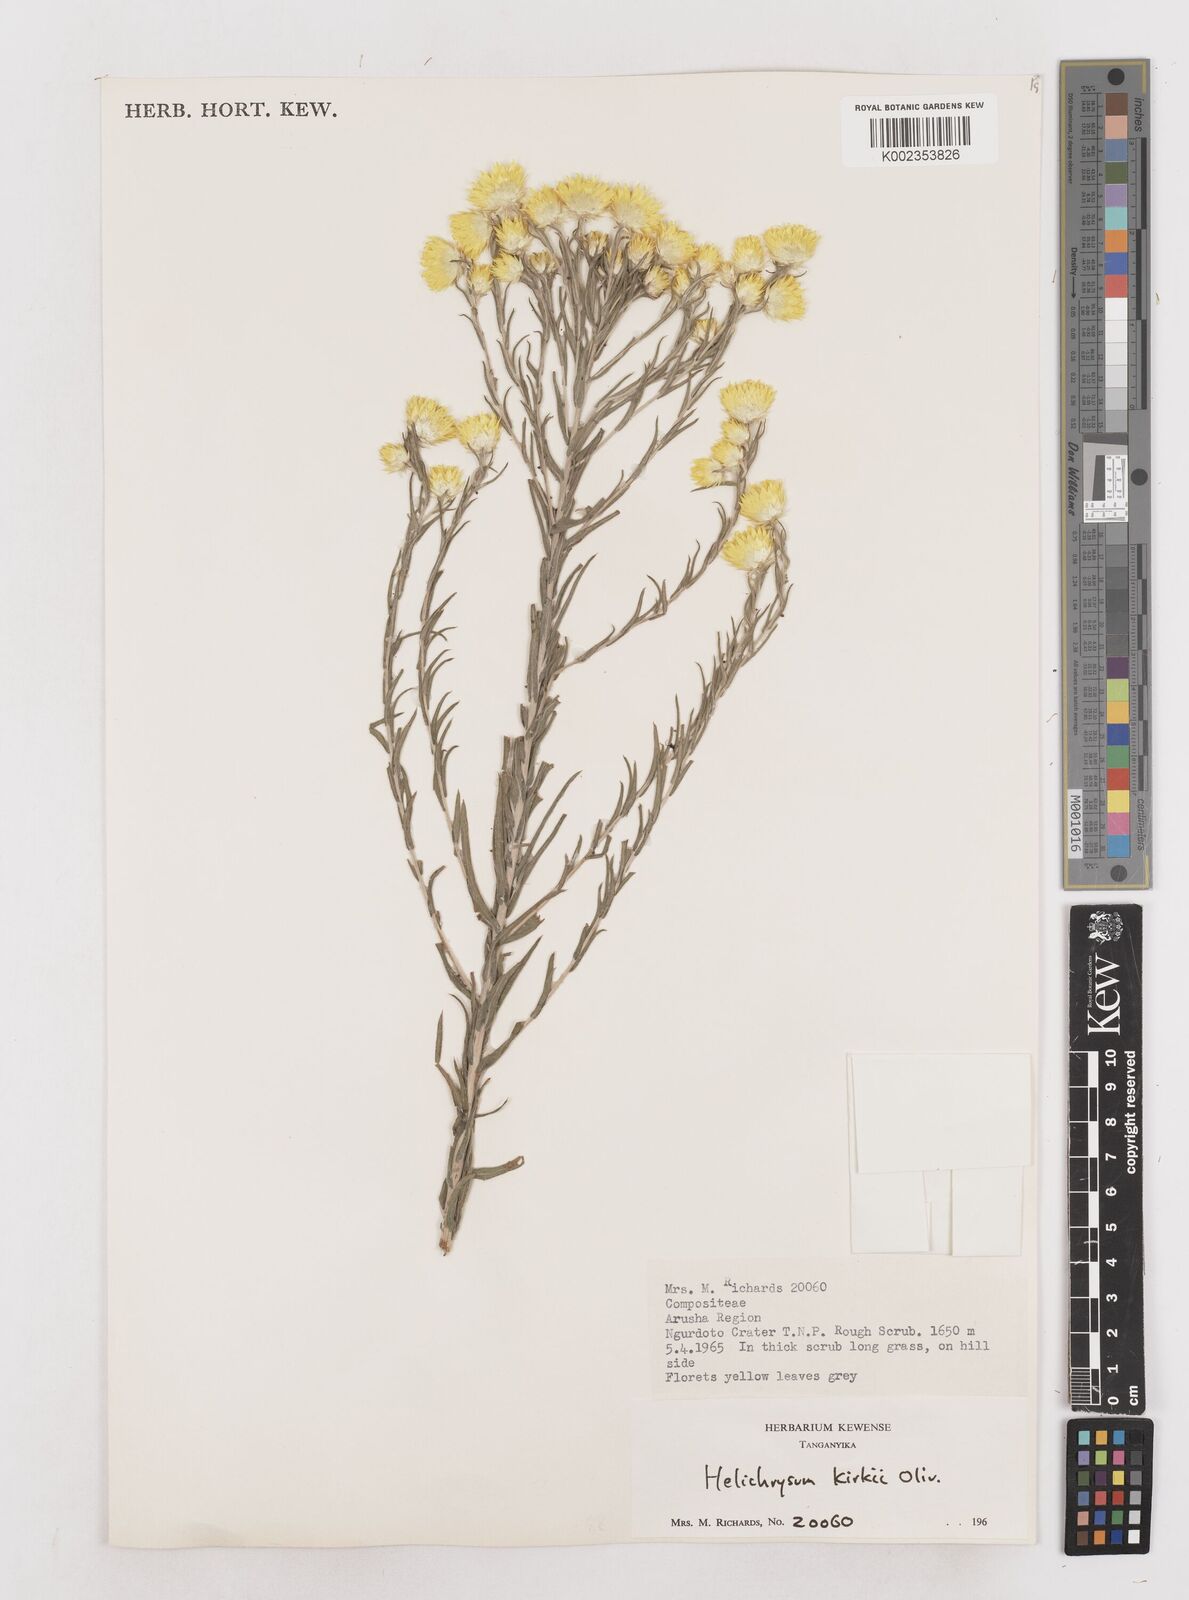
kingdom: Plantae
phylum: Tracheophyta
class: Magnoliopsida
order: Asterales
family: Asteraceae
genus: Helichrysum
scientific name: Helichrysum kirkii
